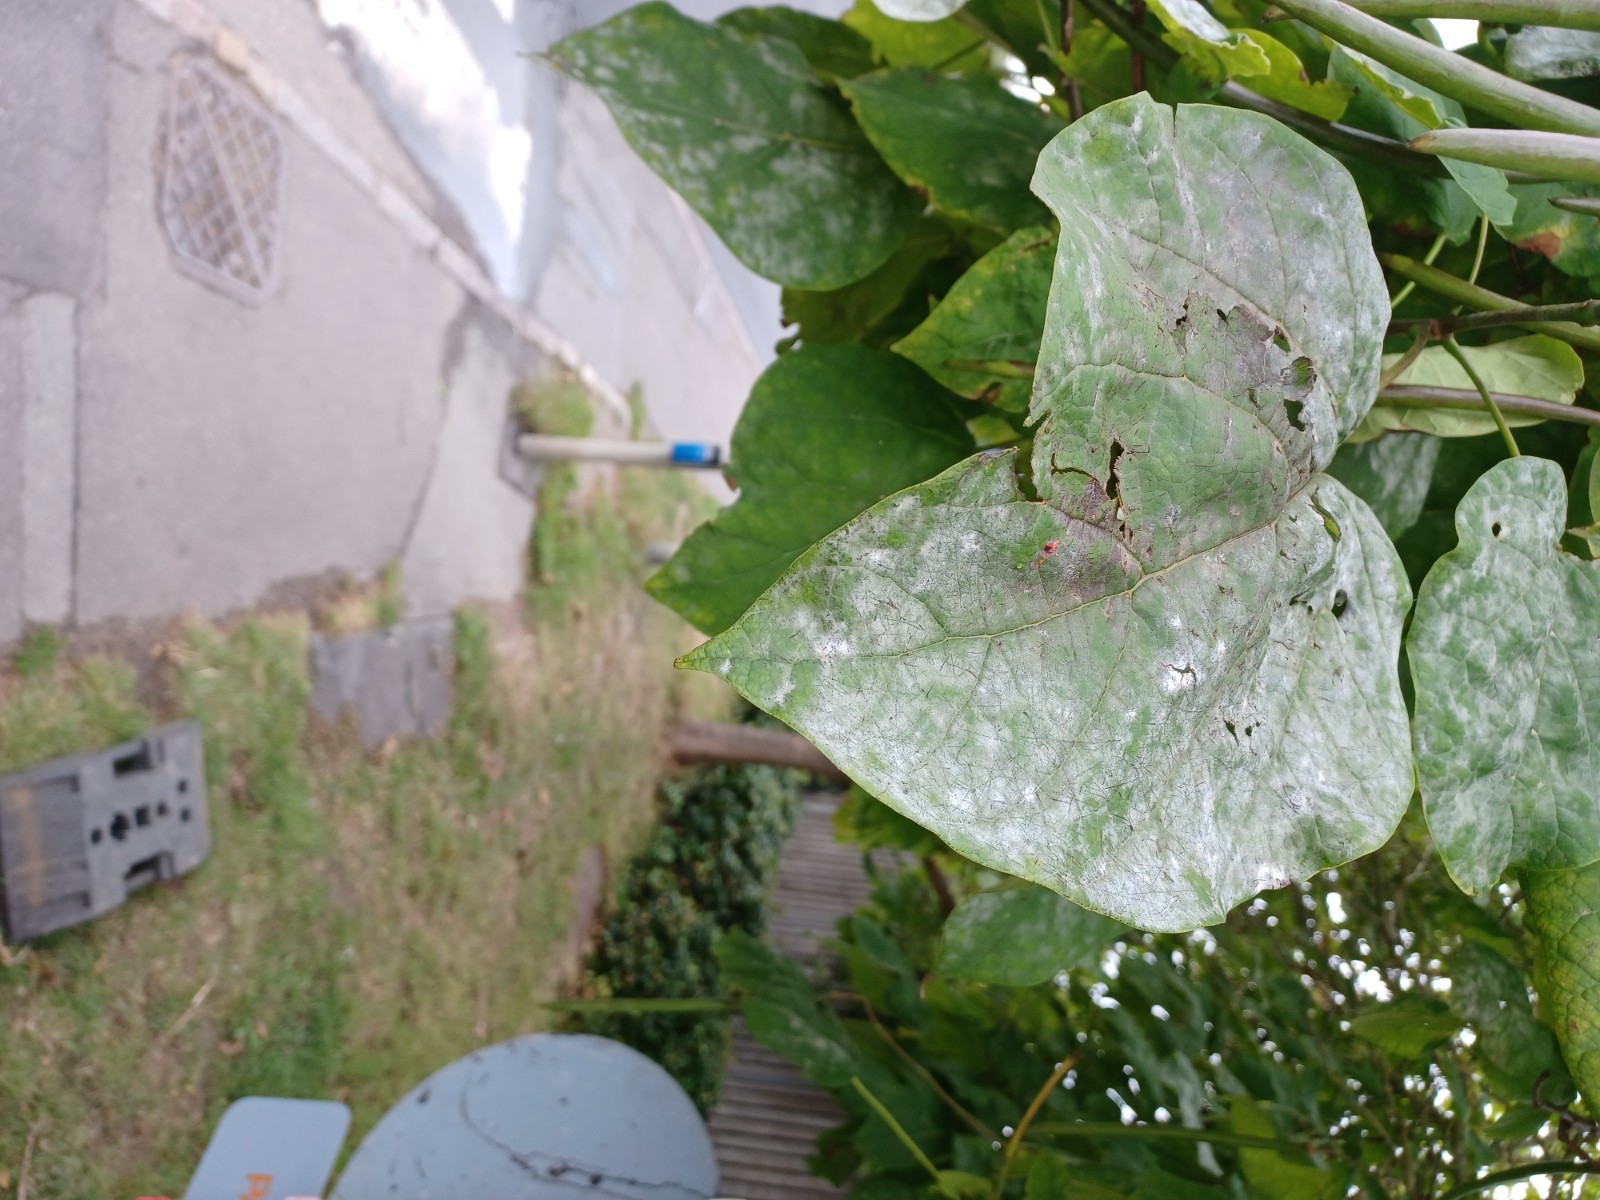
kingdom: Fungi
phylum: Ascomycota
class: Leotiomycetes
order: Helotiales
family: Erysiphaceae
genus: Erysiphe
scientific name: Erysiphe elevata
